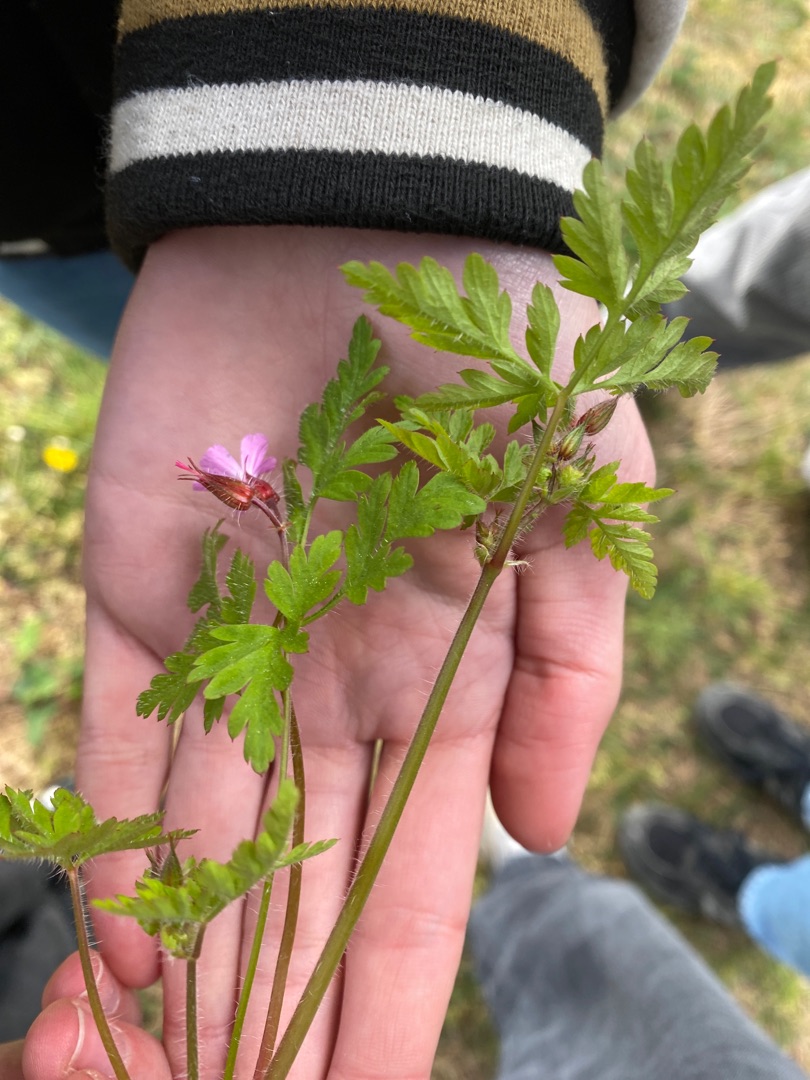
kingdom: Plantae
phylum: Tracheophyta
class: Magnoliopsida
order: Geraniales
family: Geraniaceae
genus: Geranium
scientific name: Geranium robertianum
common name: Stinkende storkenæb
